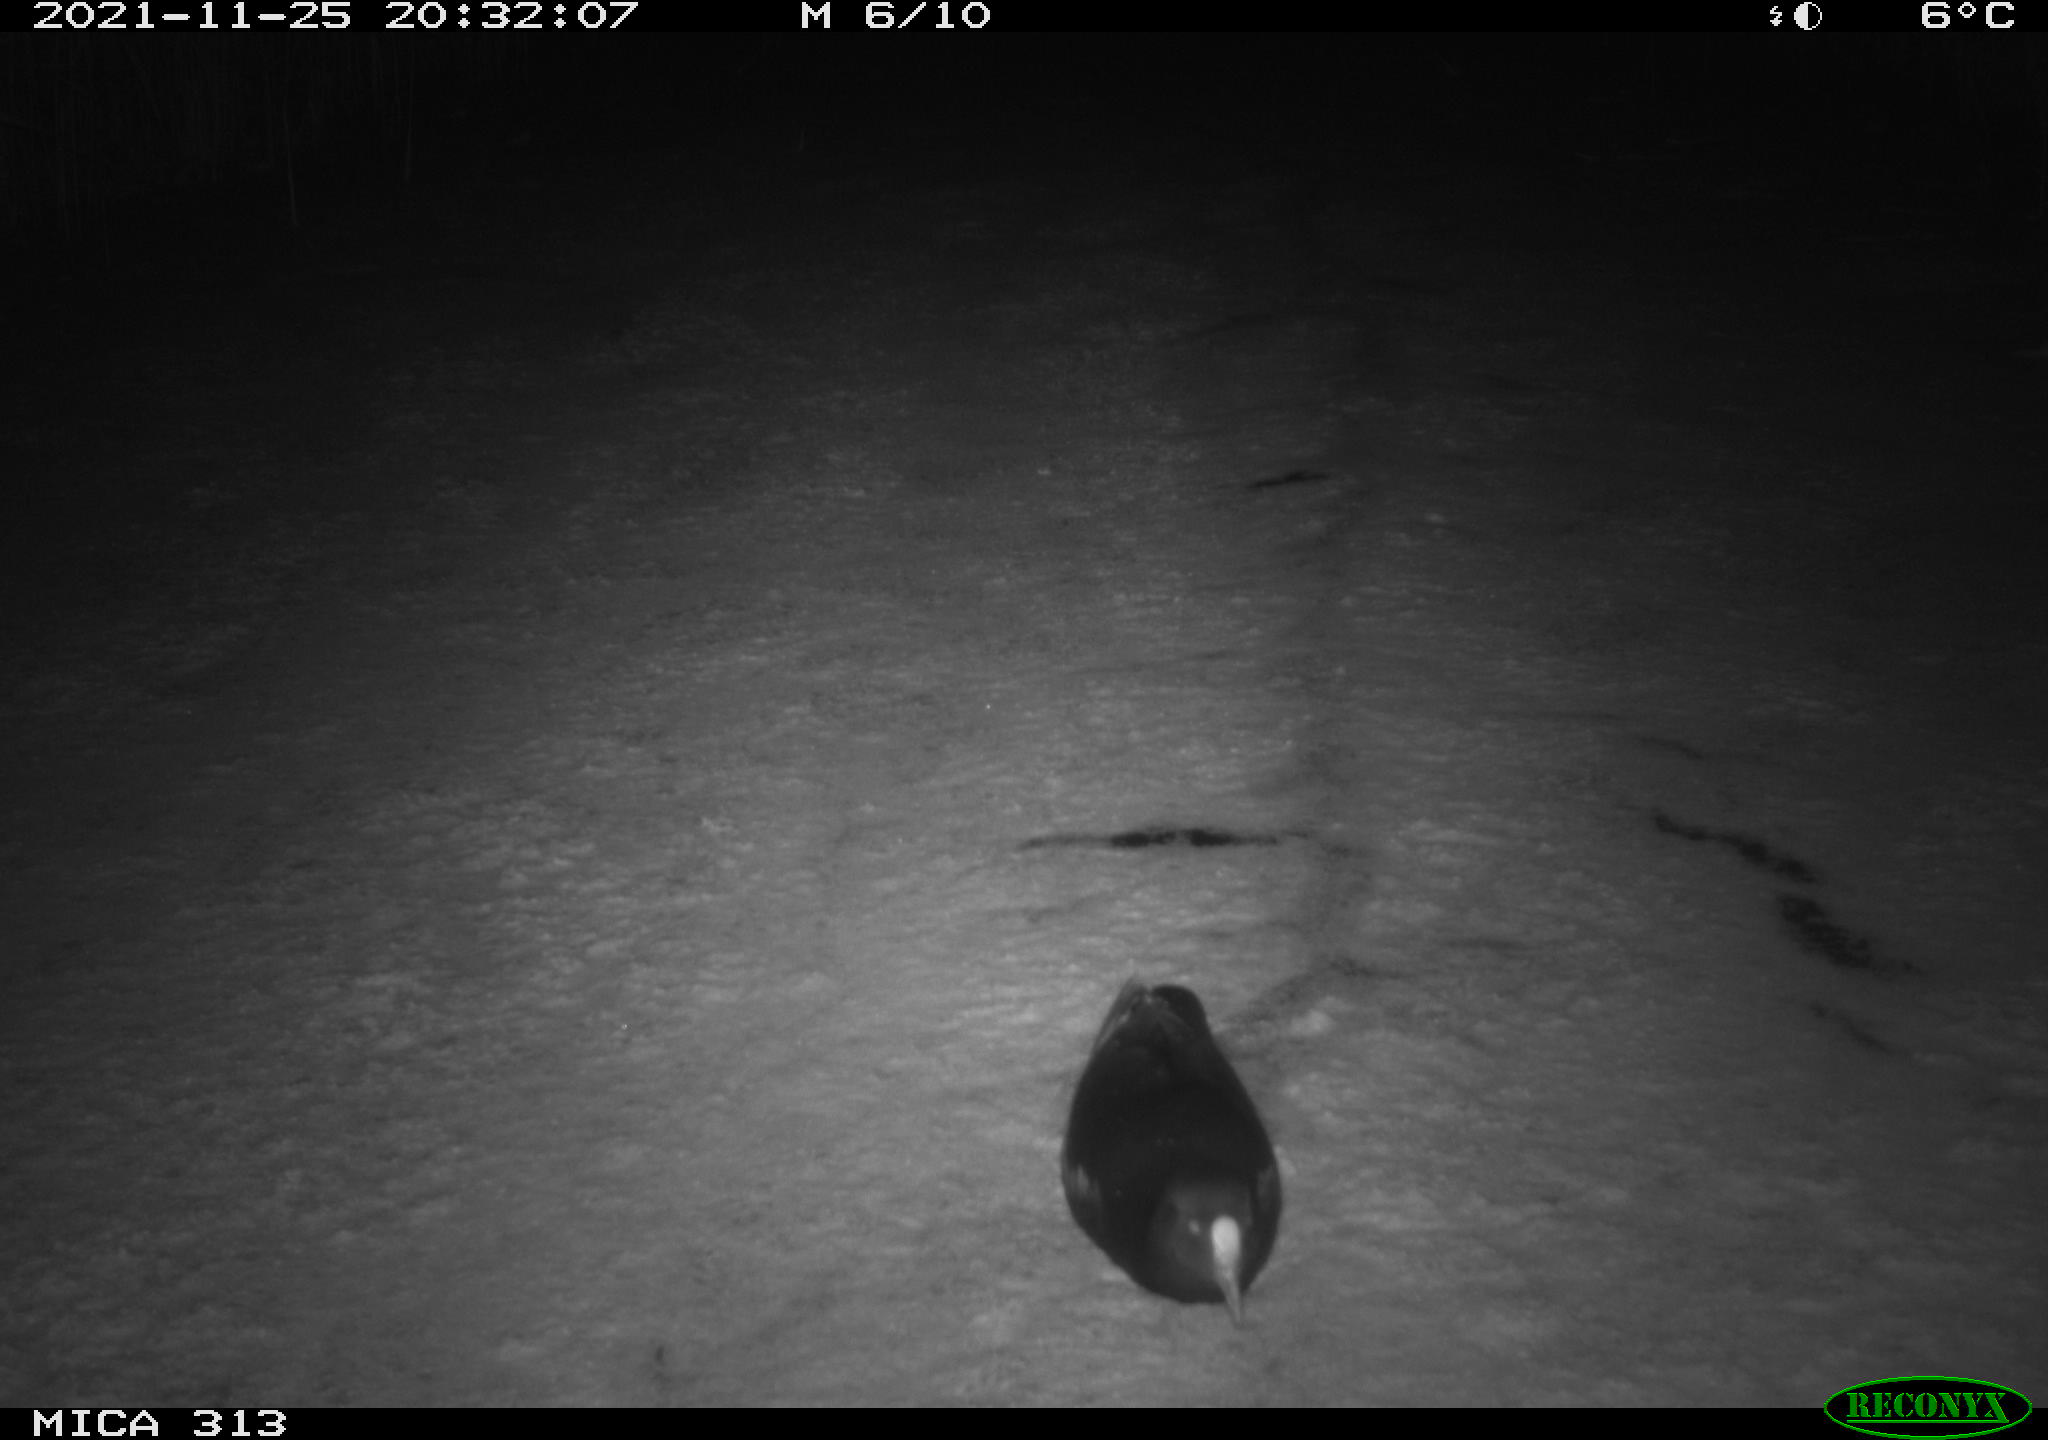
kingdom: Animalia
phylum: Chordata
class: Aves
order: Gruiformes
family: Rallidae
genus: Gallinula
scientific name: Gallinula chloropus
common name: Common moorhen
